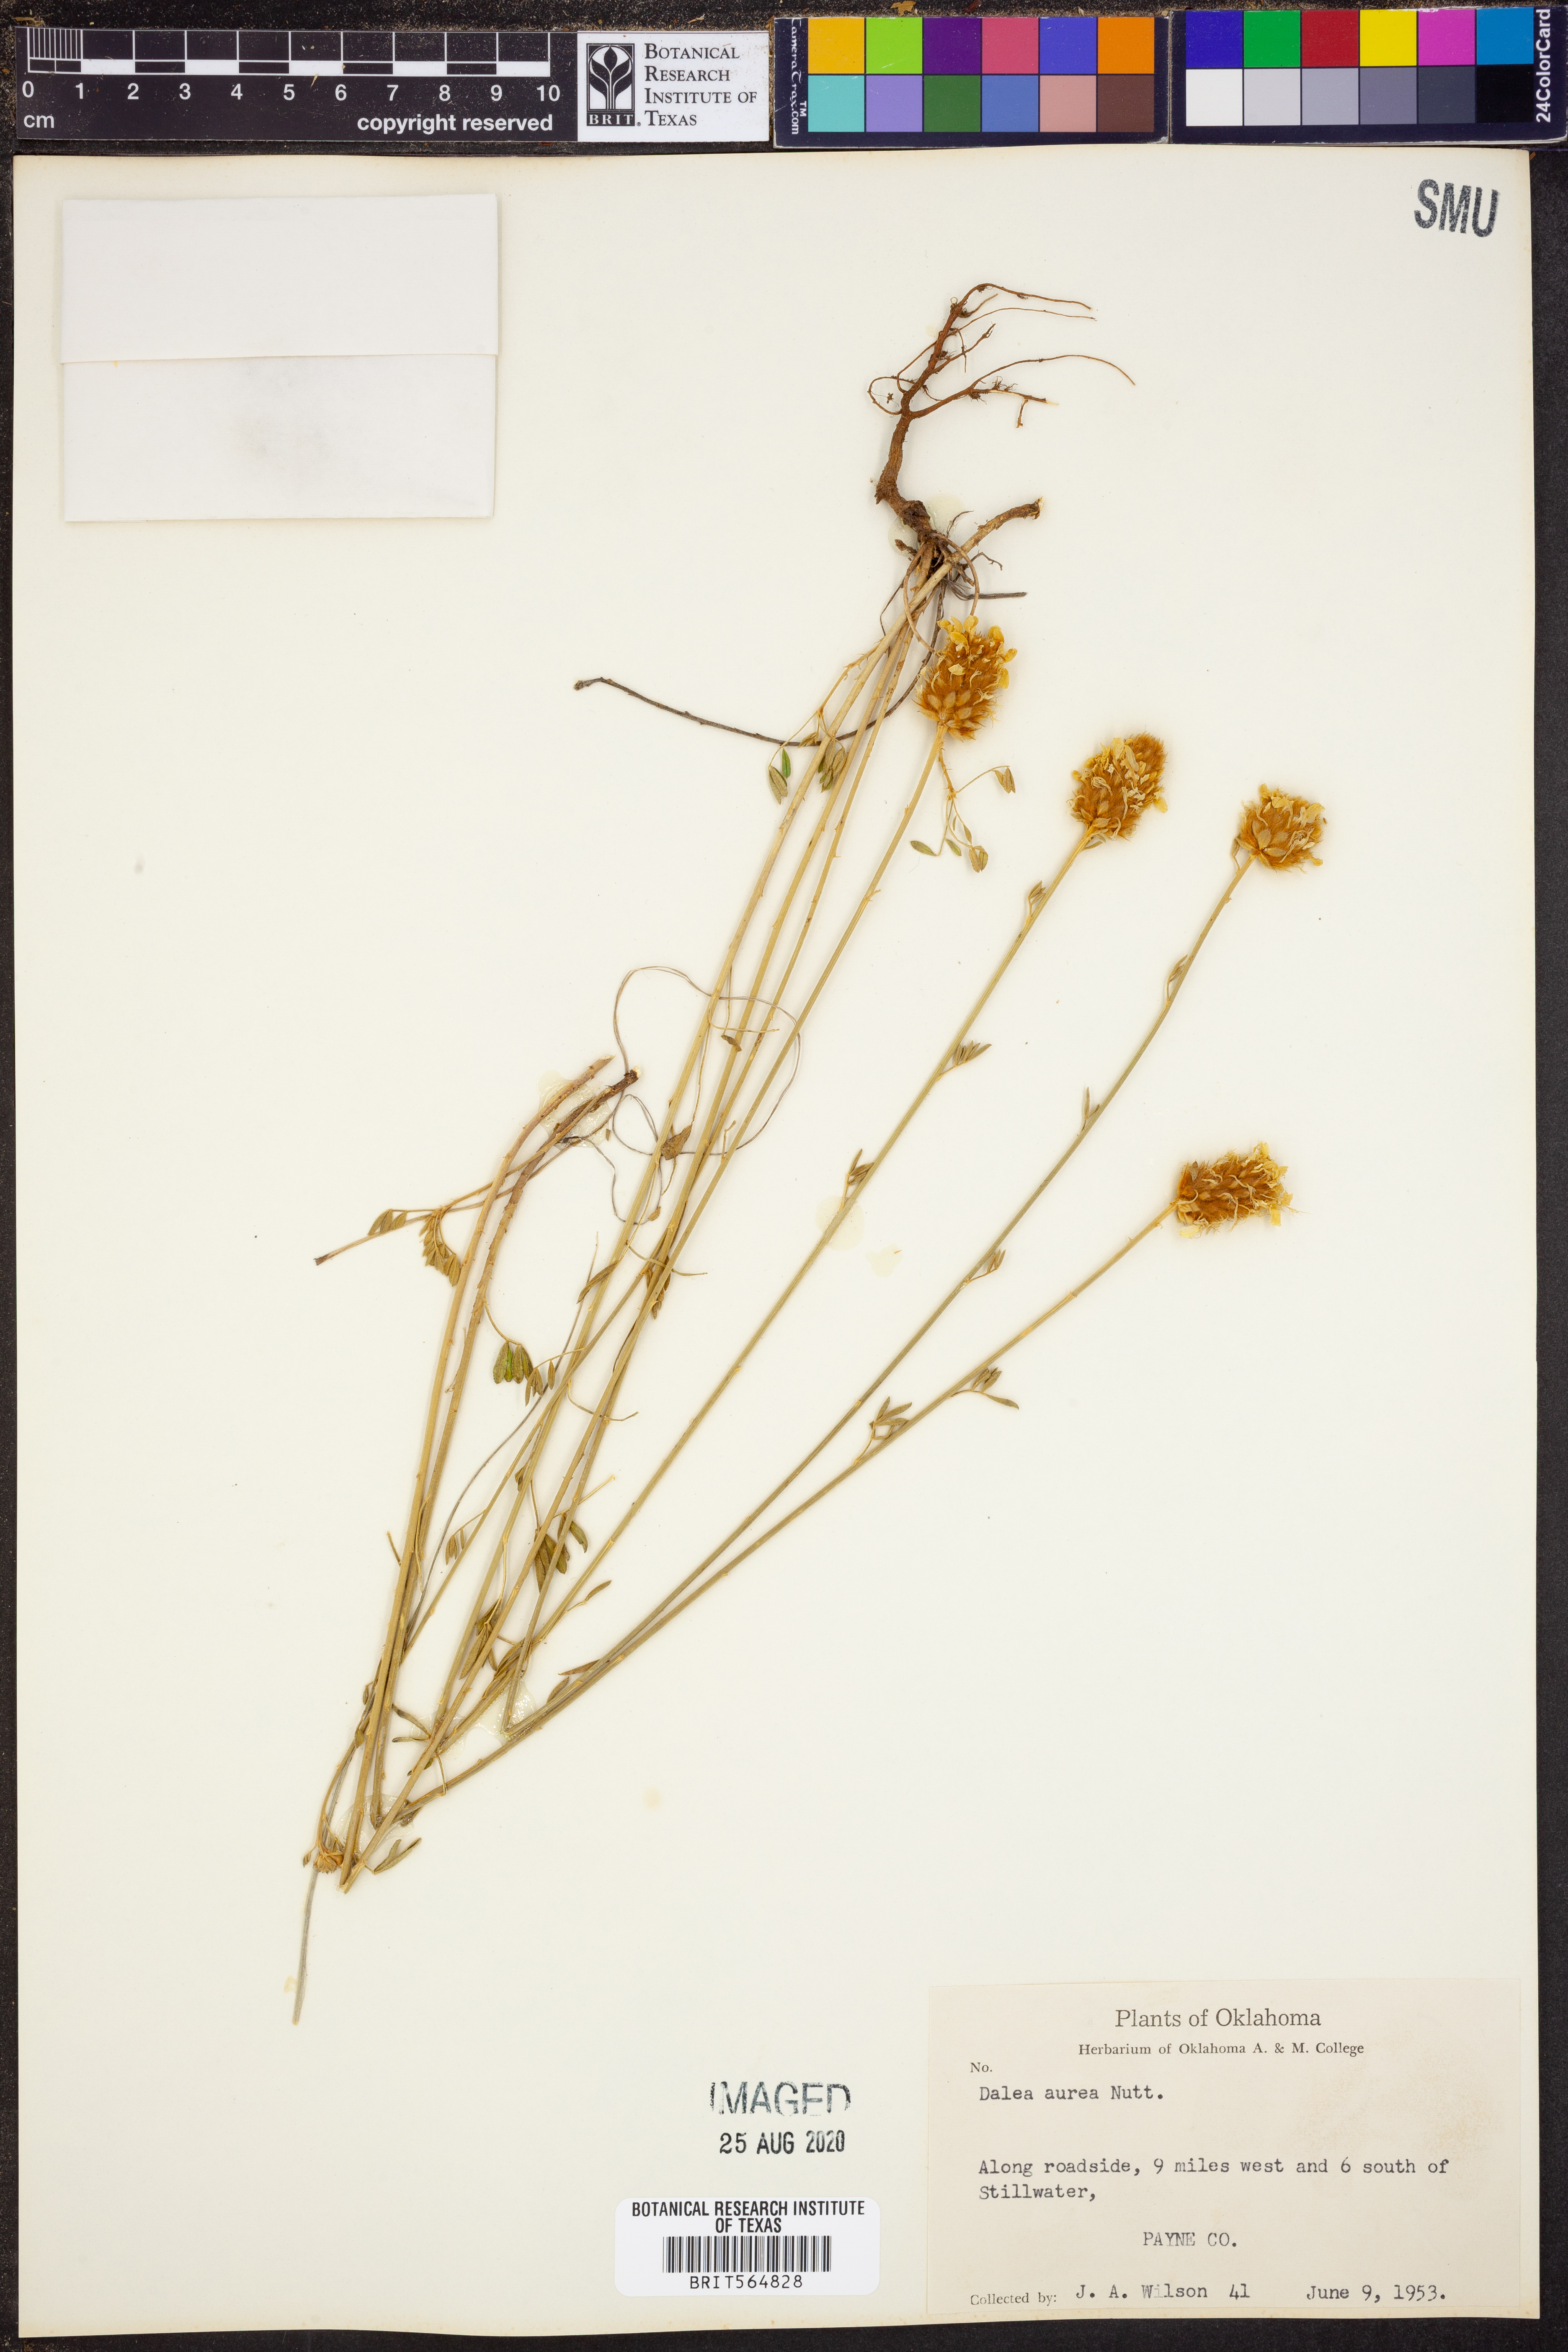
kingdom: Plantae
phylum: Tracheophyta
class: Magnoliopsida
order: Fabales
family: Fabaceae
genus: Dalea
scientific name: Dalea aurea
